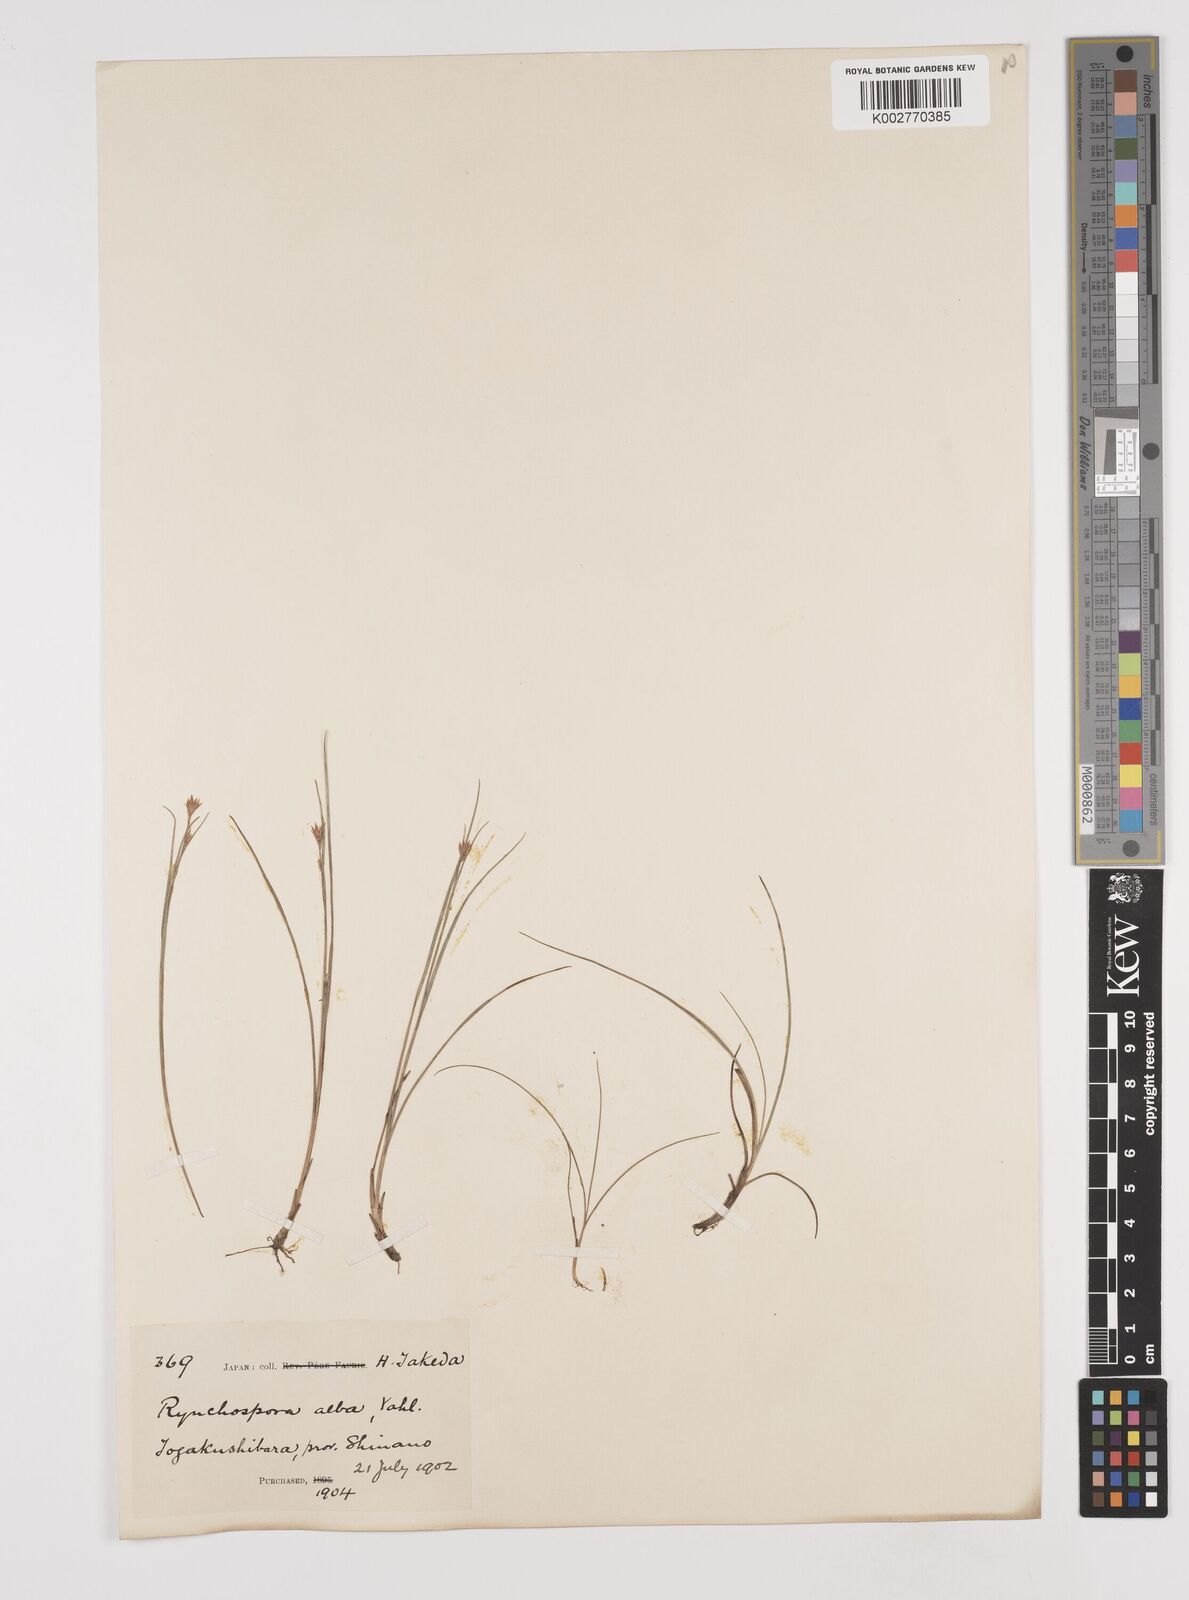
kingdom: Plantae
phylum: Tracheophyta
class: Liliopsida
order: Poales
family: Cyperaceae
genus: Rhynchospora
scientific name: Rhynchospora alba
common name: White beak-sedge
